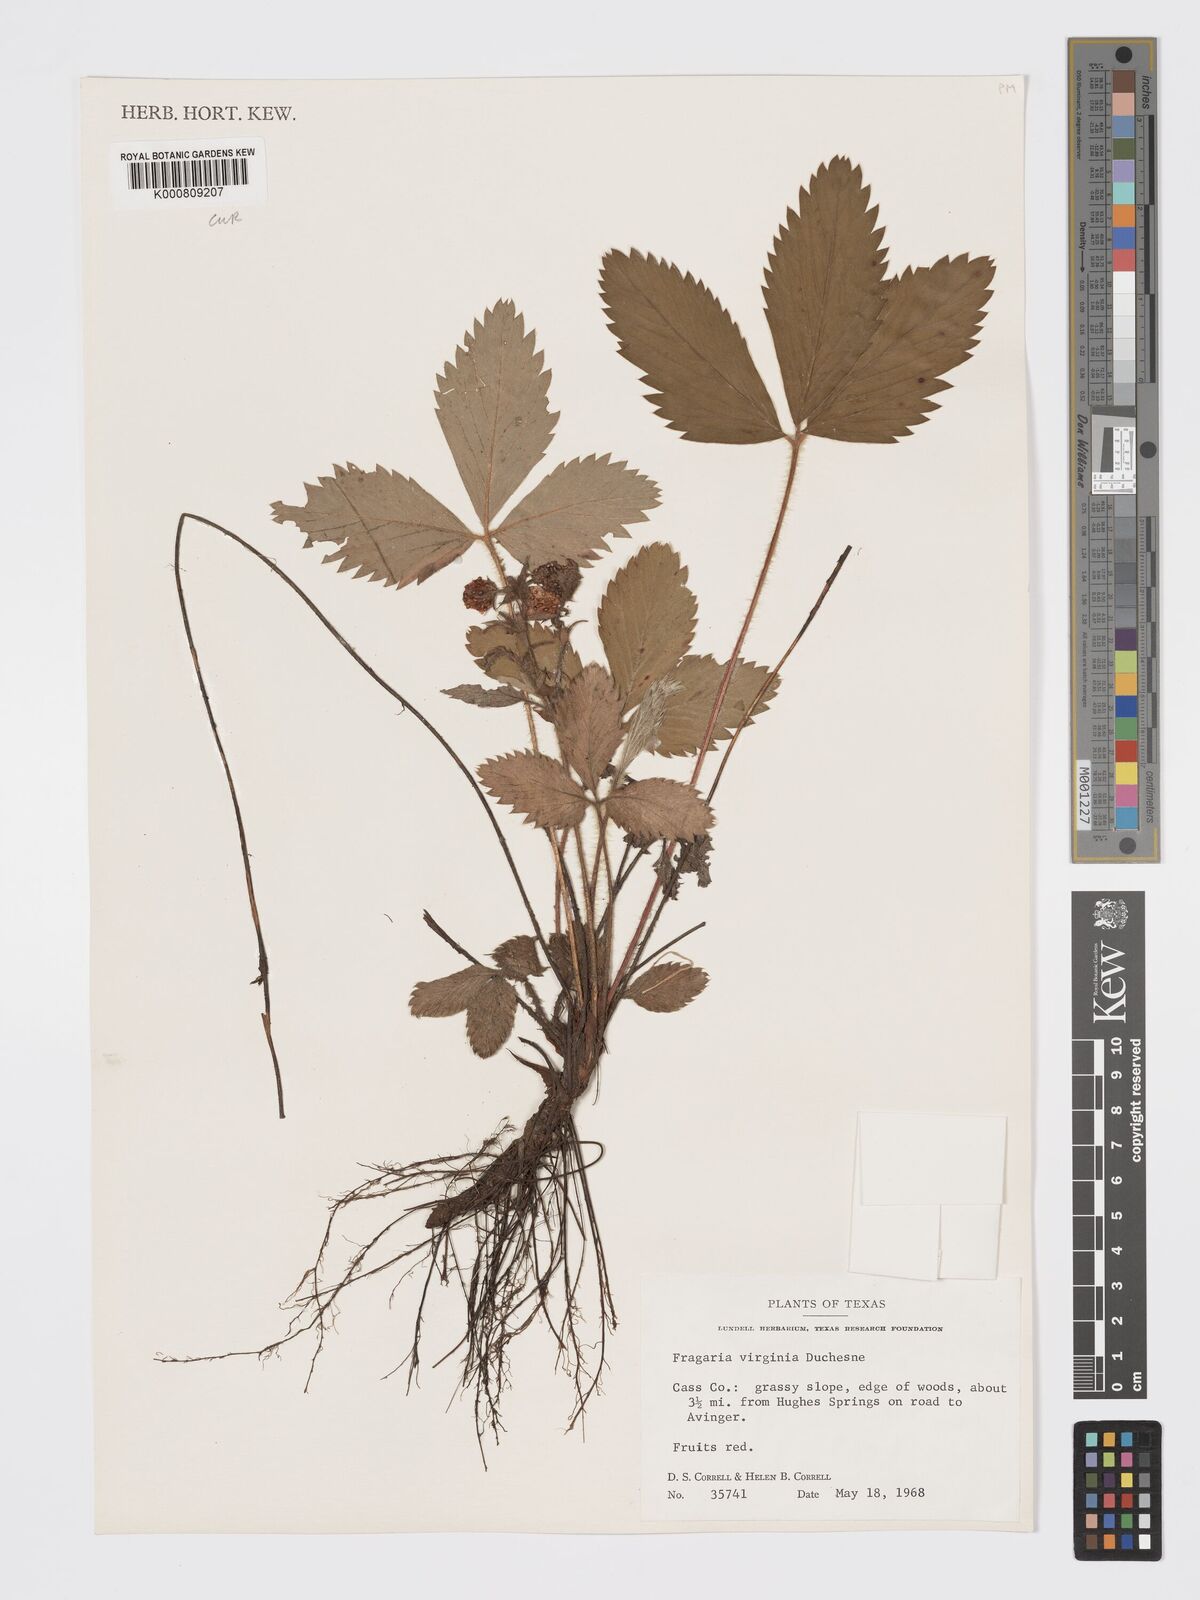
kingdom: Plantae
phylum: Tracheophyta
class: Magnoliopsida
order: Rosales
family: Rosaceae
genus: Fragaria
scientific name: Fragaria virginiana
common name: Thickleaved wild strawberry
